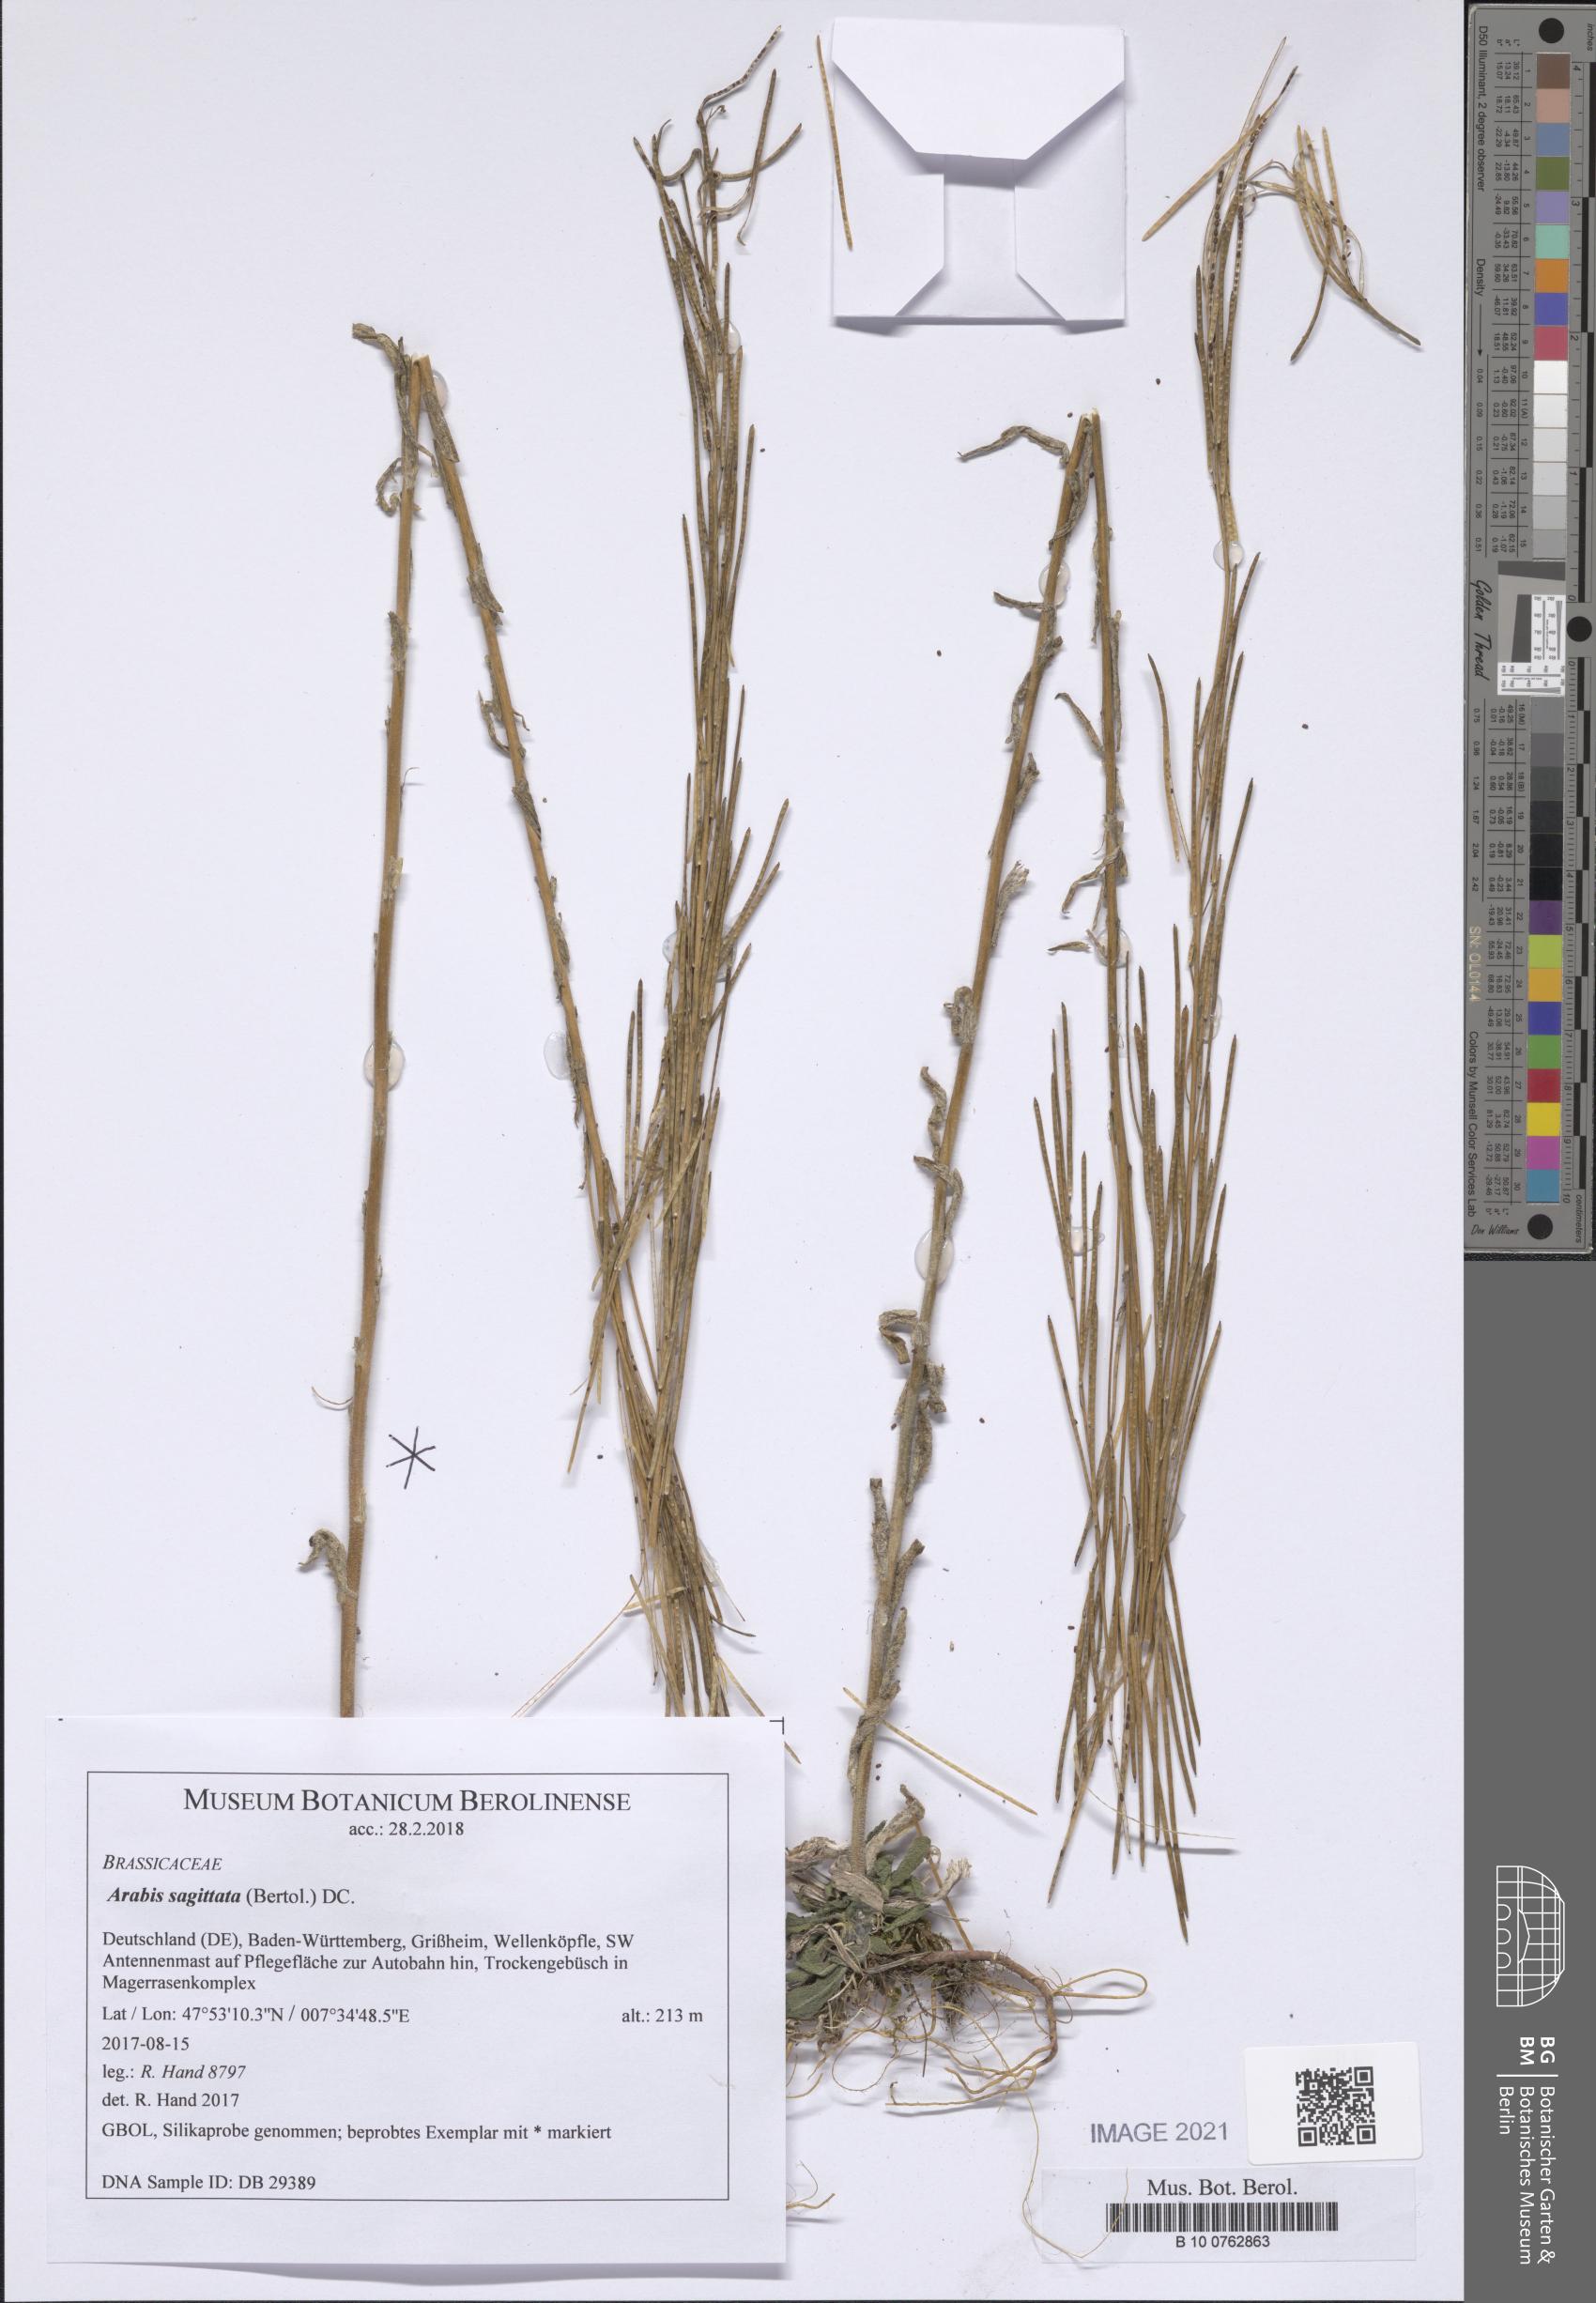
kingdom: Plantae
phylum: Tracheophyta
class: Magnoliopsida
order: Brassicales
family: Brassicaceae
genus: Arabis
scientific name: Arabis sagittata
